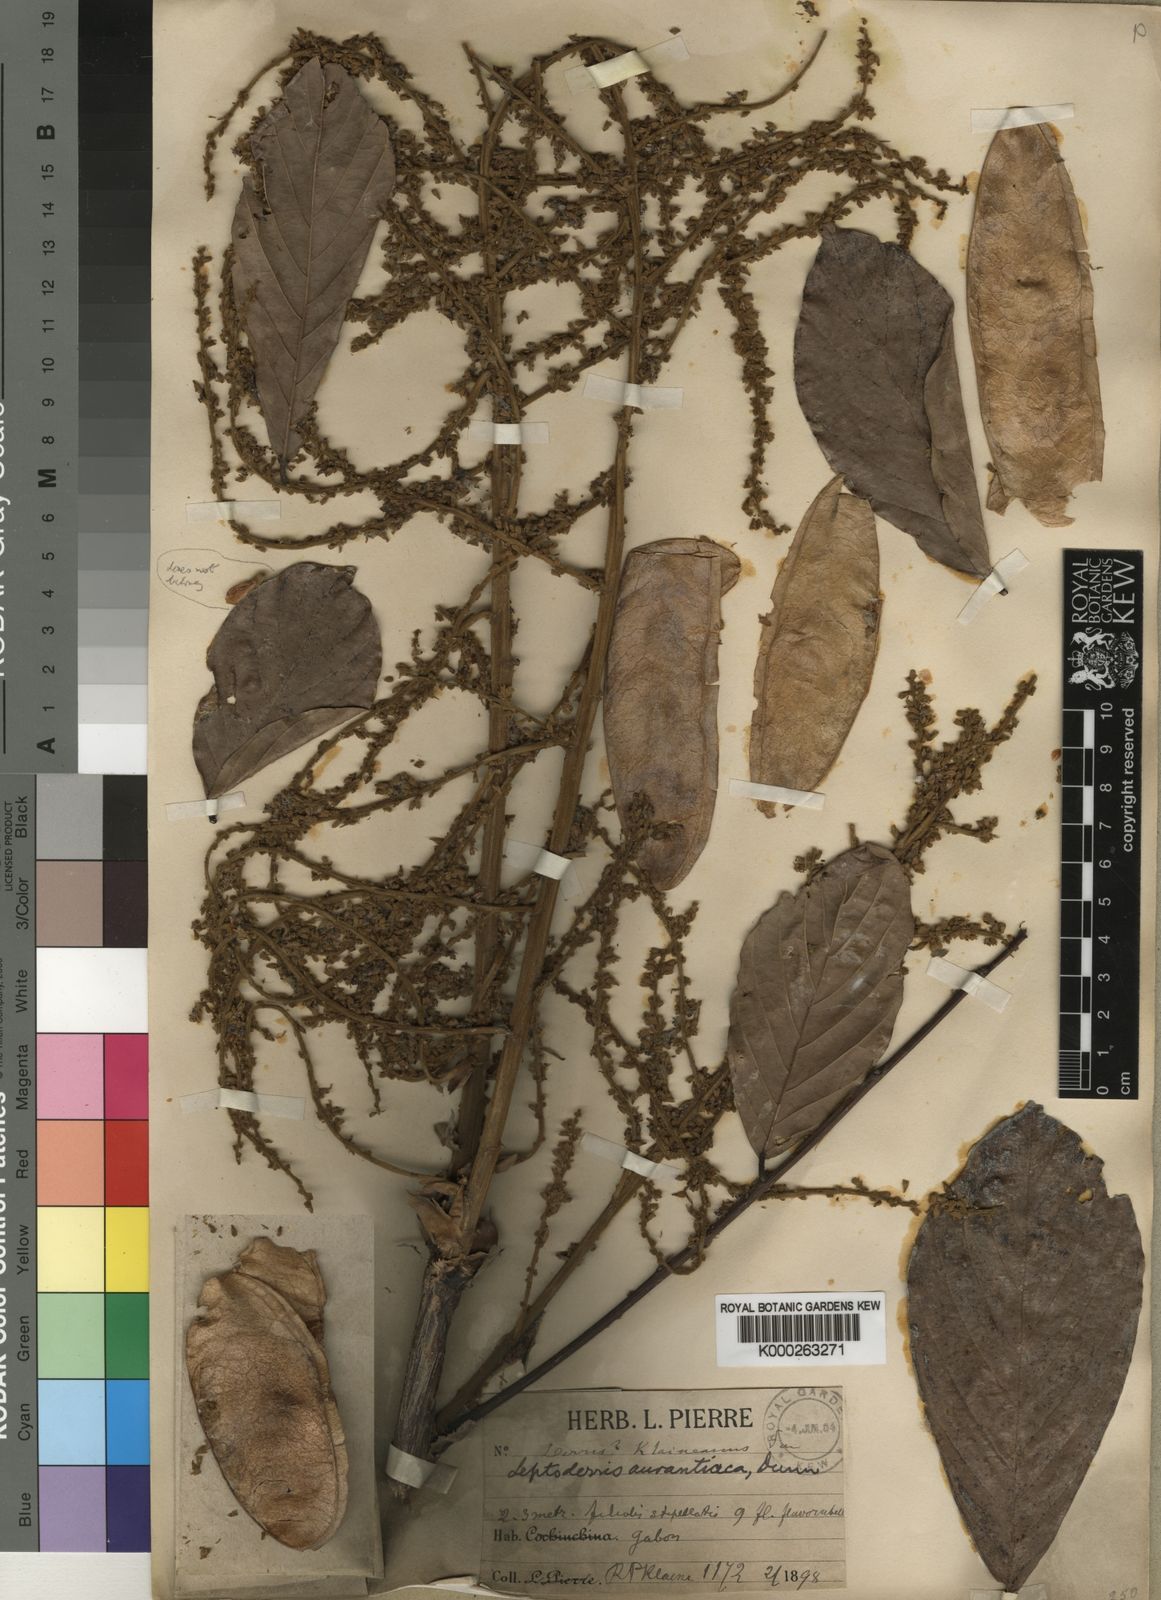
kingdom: Plantae
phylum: Tracheophyta
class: Magnoliopsida
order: Fabales
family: Fabaceae
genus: Leptoderris
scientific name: Leptoderris aurantiaca
